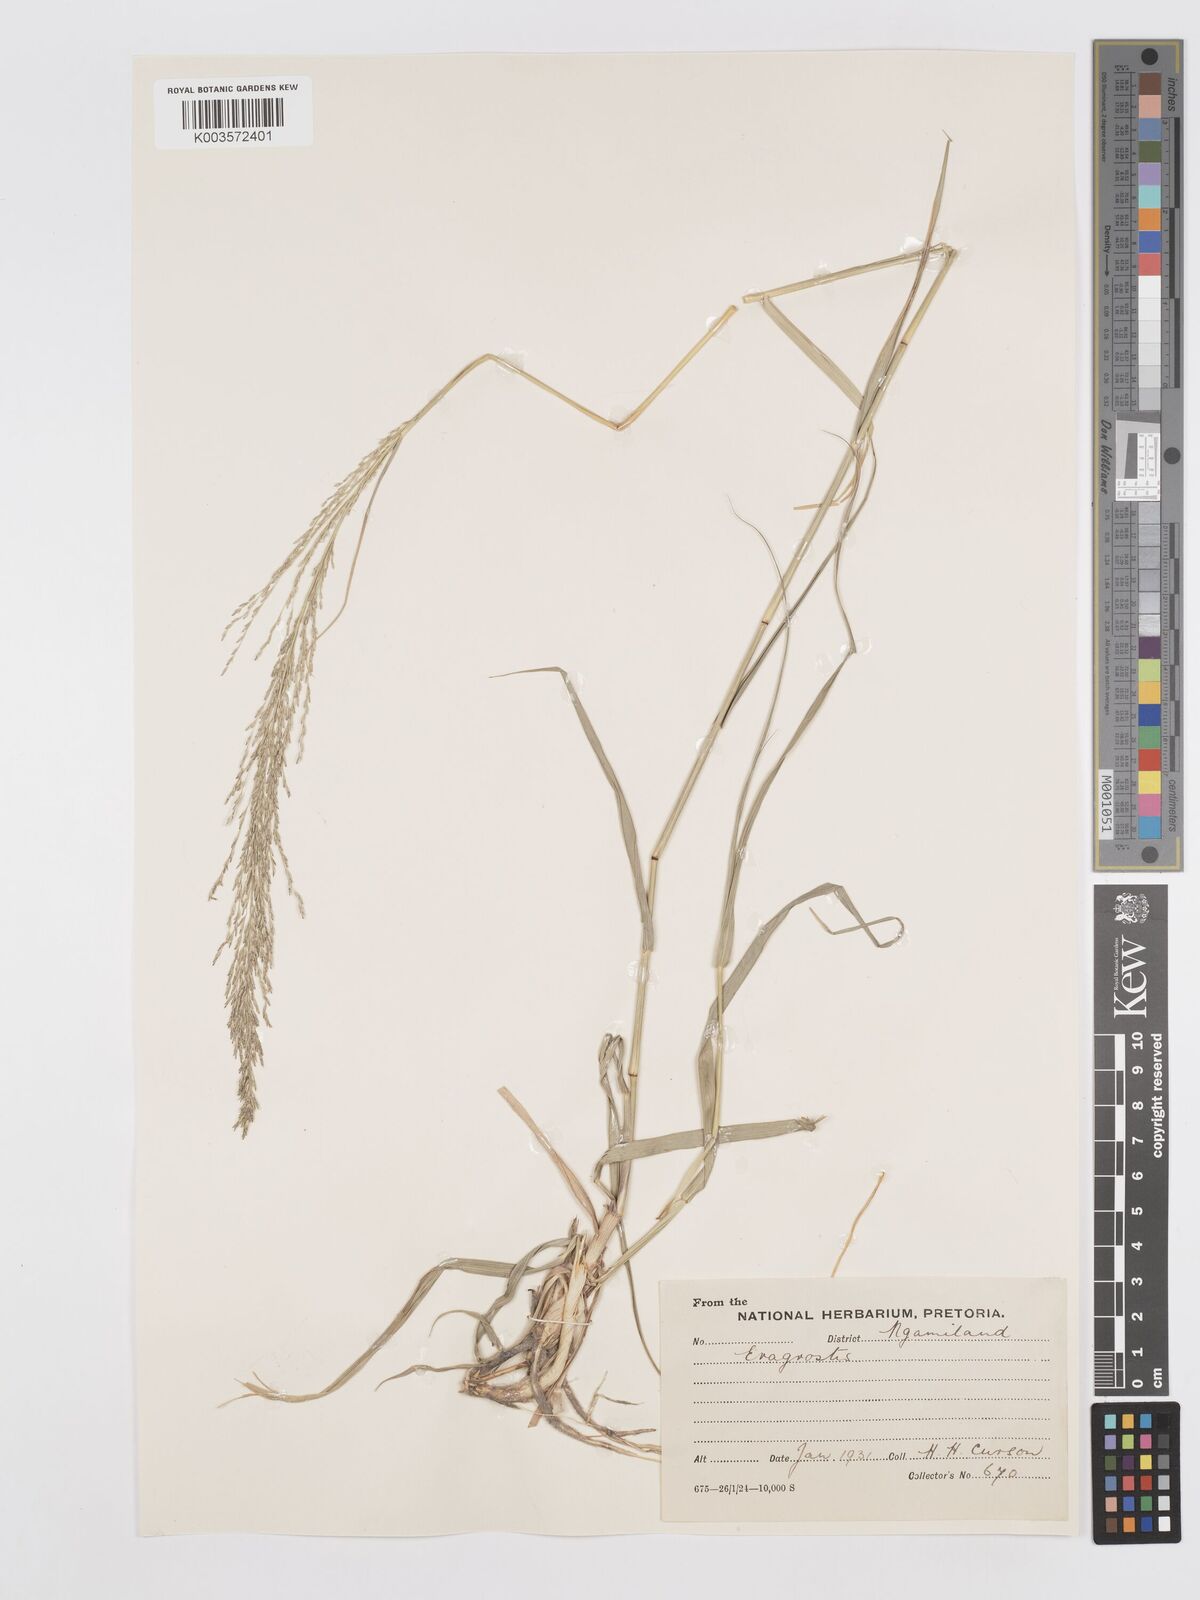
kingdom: Plantae
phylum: Tracheophyta
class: Liliopsida
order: Poales
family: Poaceae
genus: Eragrostis
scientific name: Eragrostis
